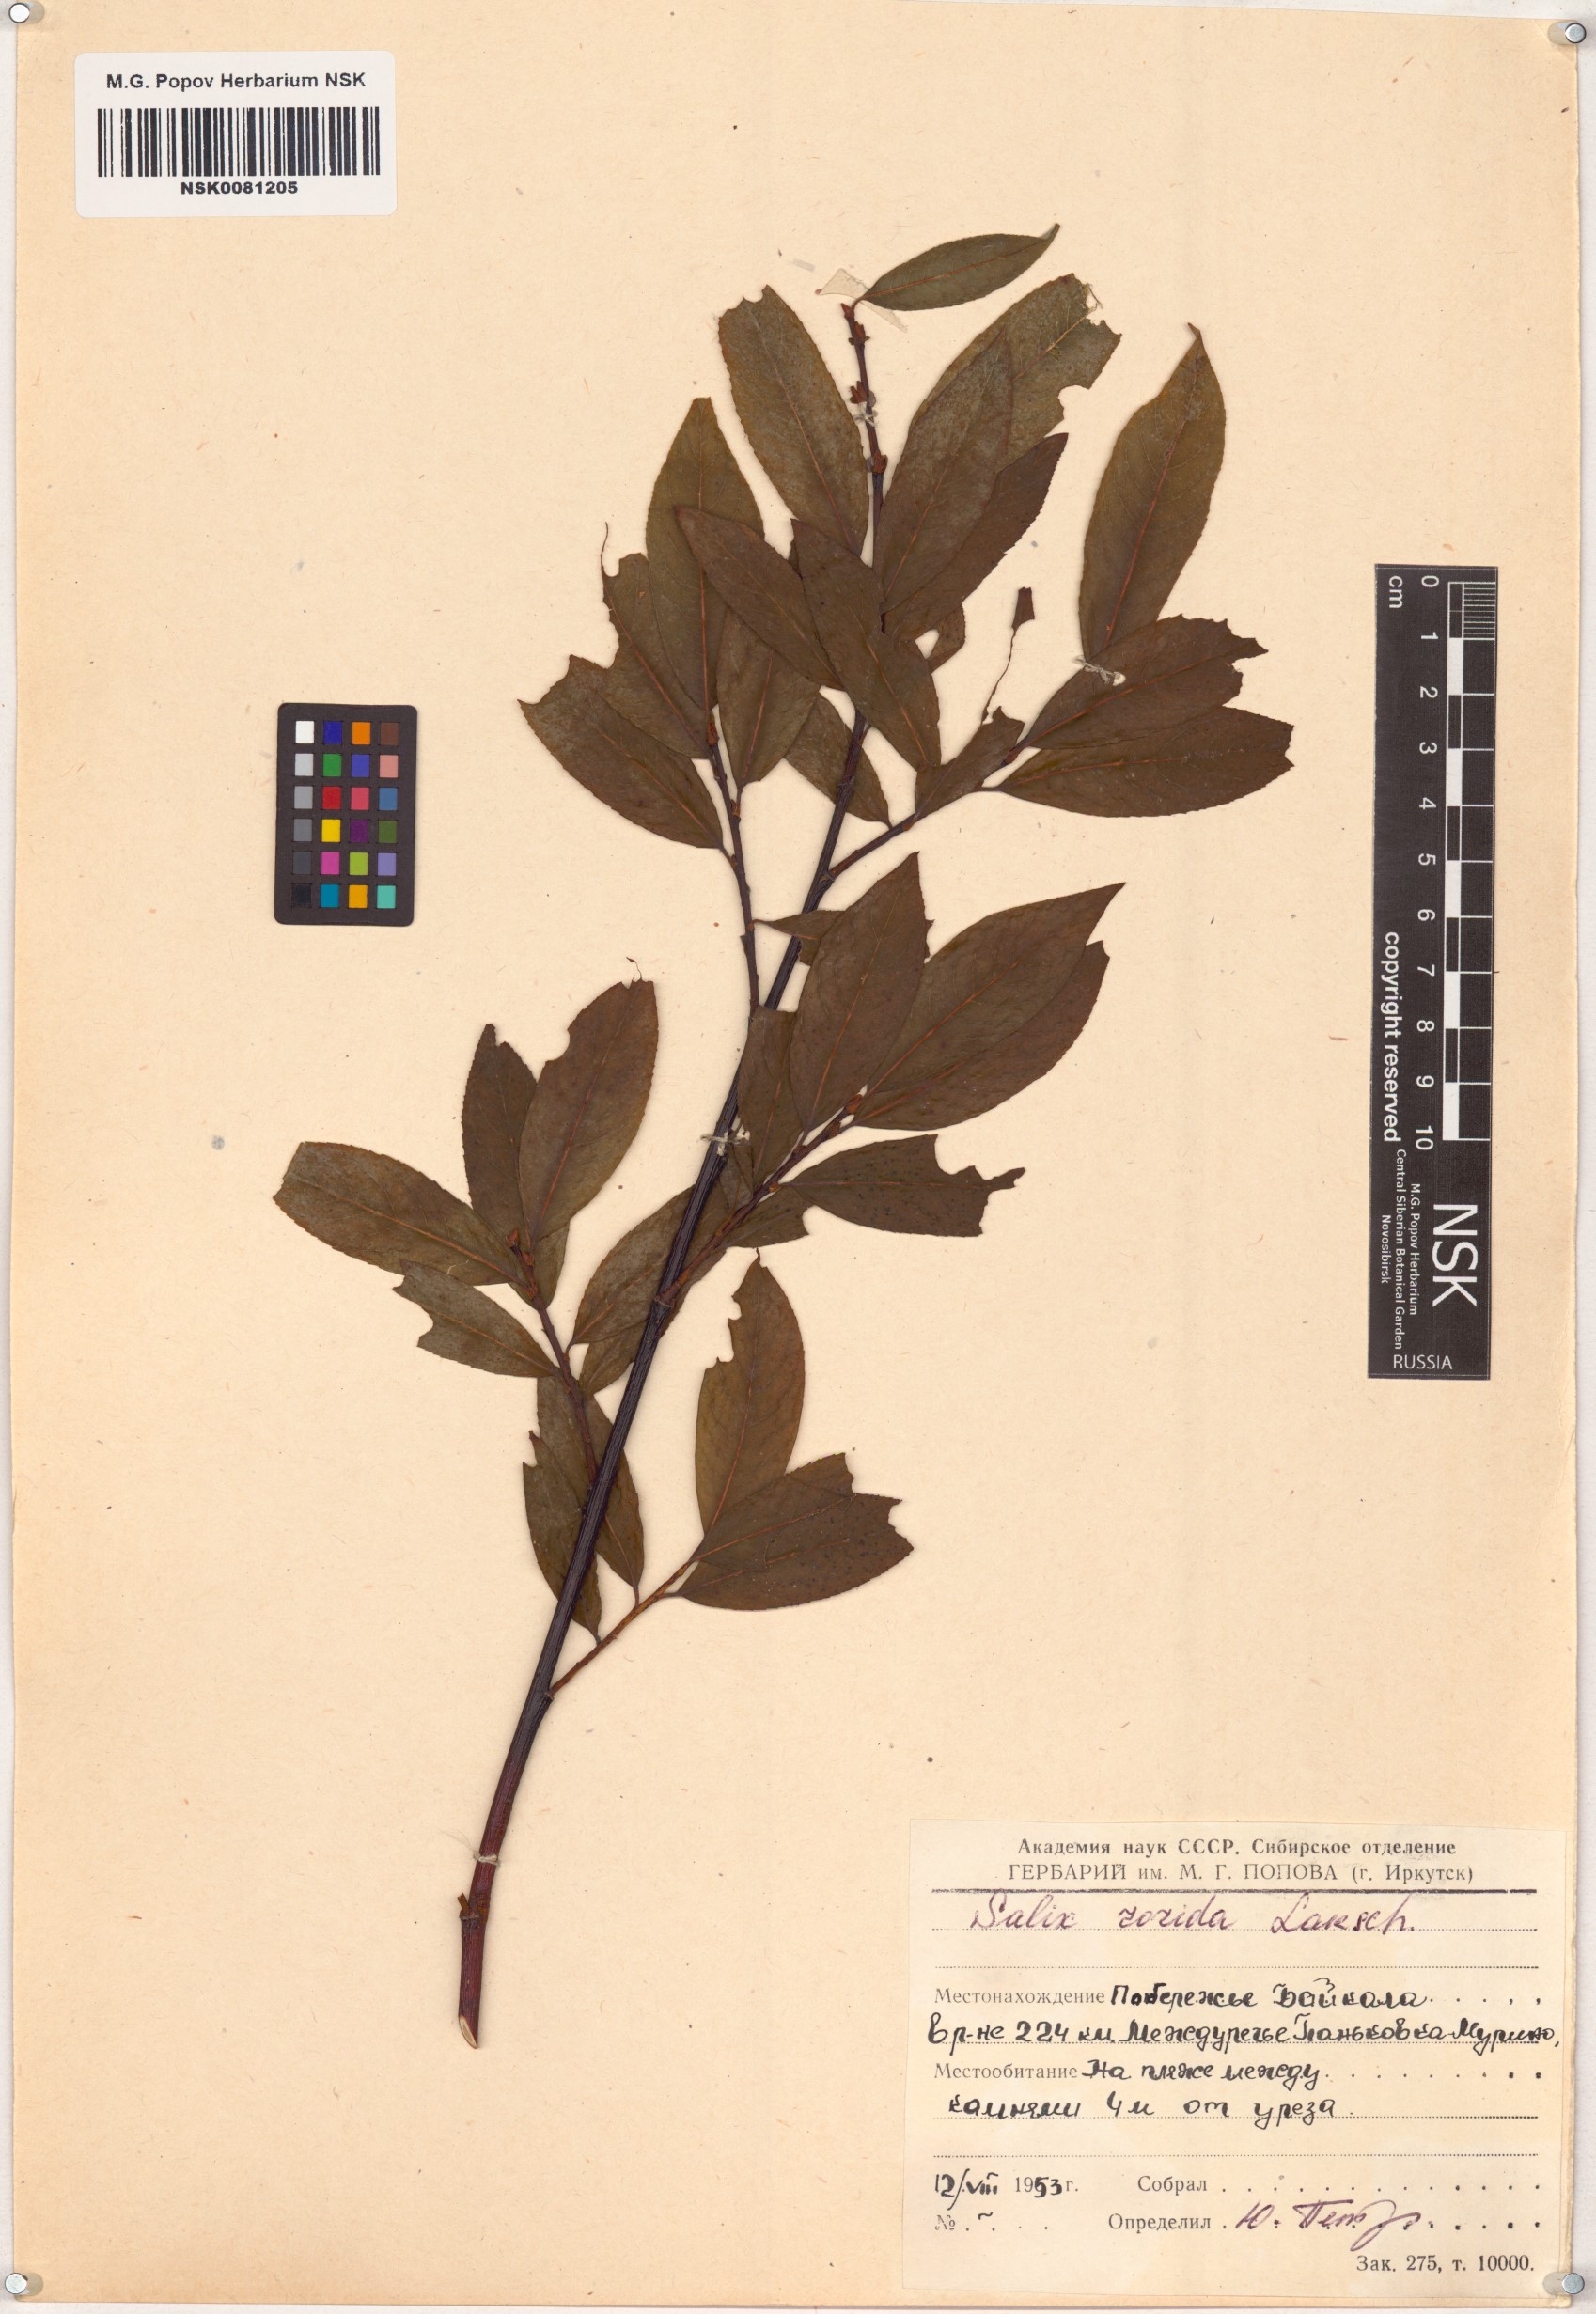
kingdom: Plantae
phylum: Tracheophyta
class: Magnoliopsida
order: Malpighiales
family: Salicaceae
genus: Salix
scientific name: Salix rorida
